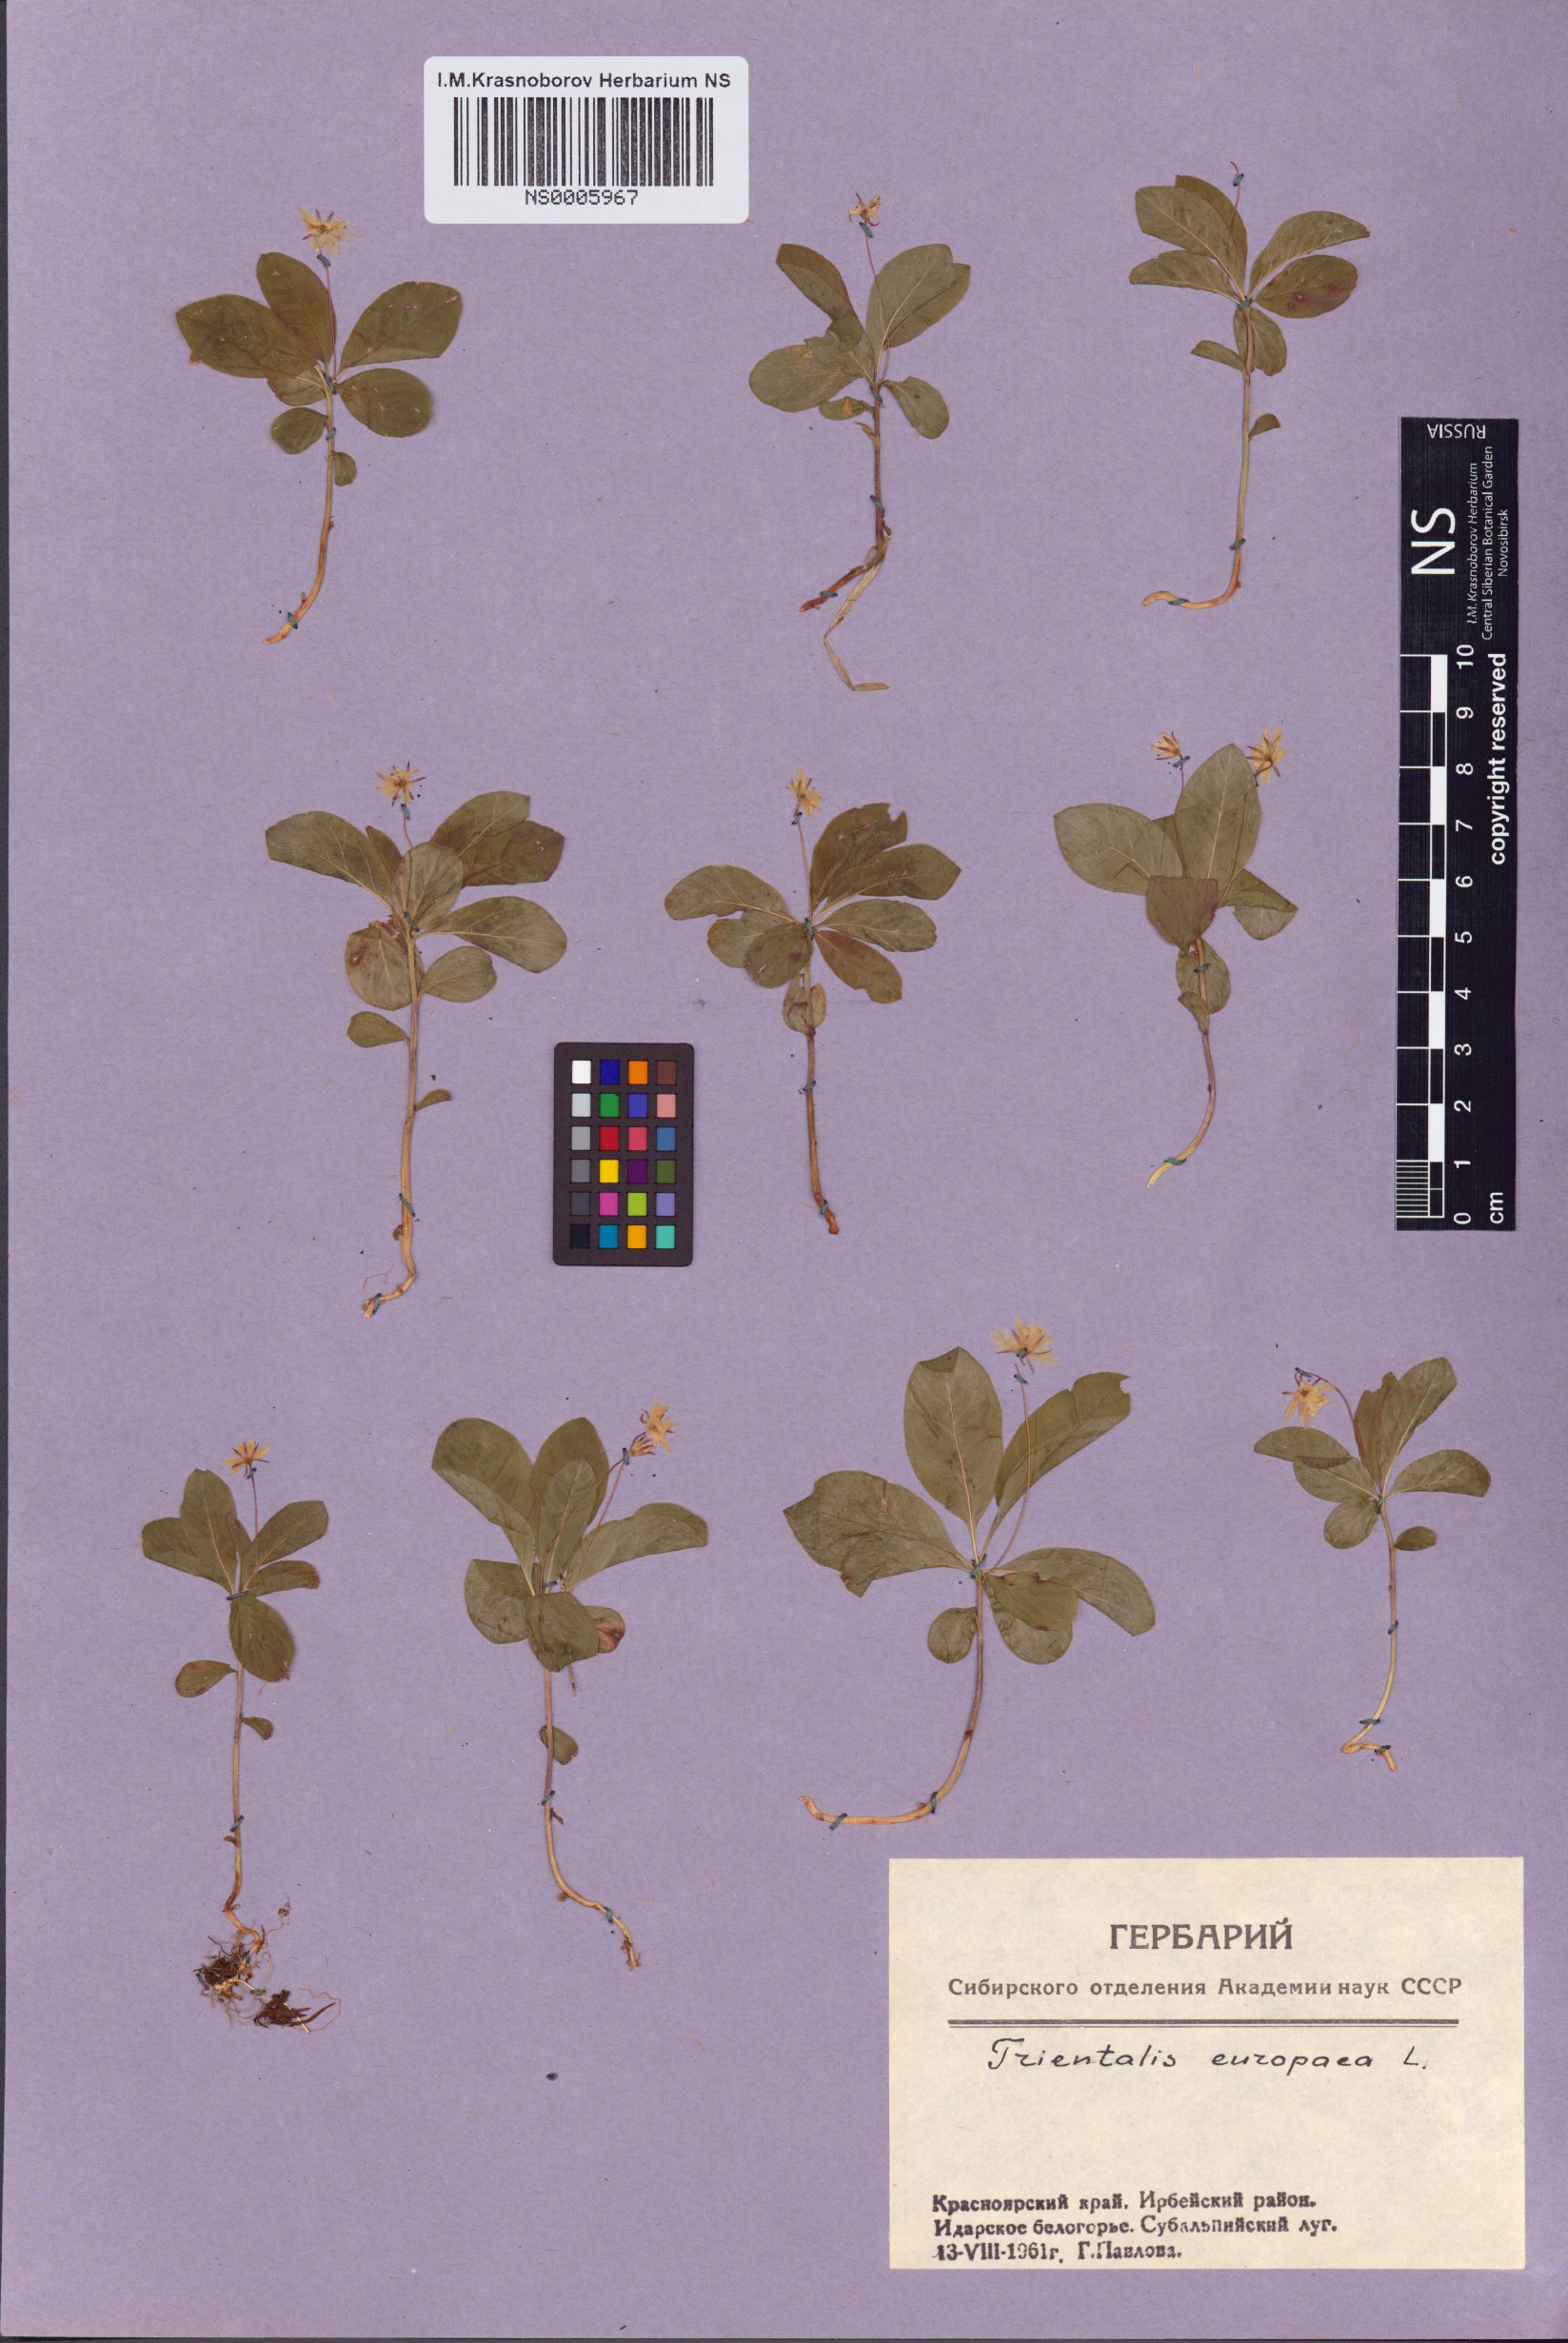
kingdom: Plantae
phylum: Tracheophyta
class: Magnoliopsida
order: Ericales
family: Primulaceae
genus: Lysimachia
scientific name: Lysimachia europaea
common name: Arctic starflower
